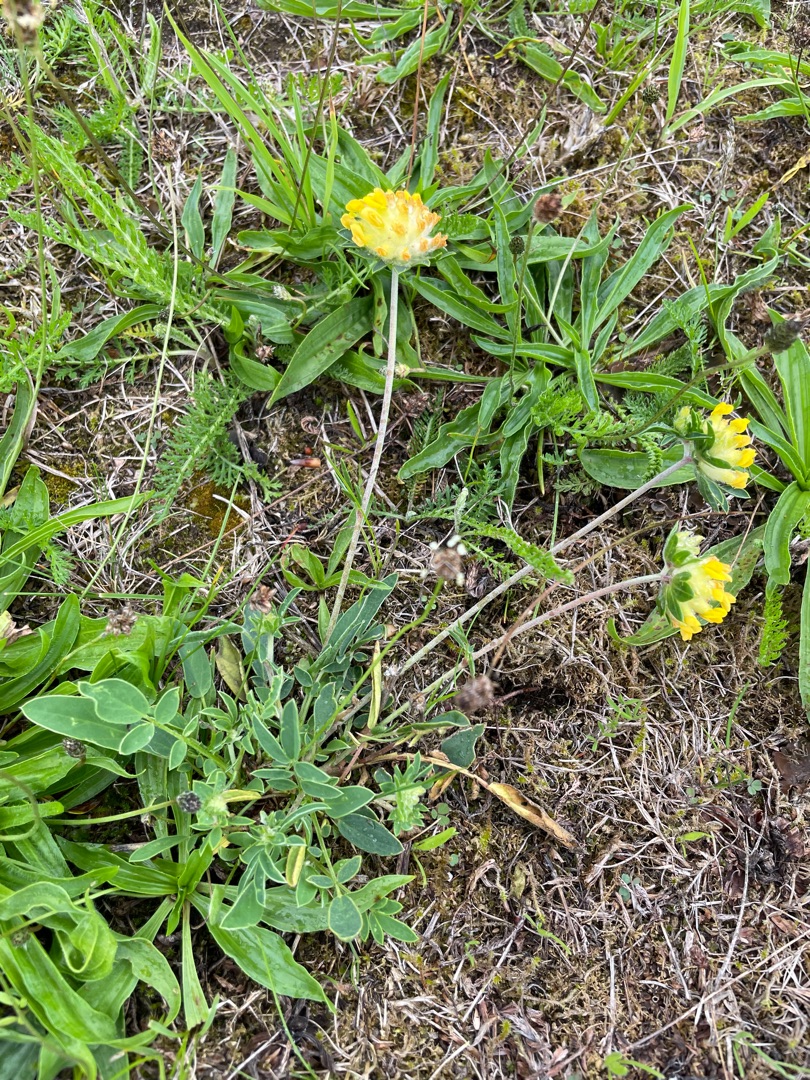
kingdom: Plantae
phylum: Tracheophyta
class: Magnoliopsida
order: Fabales
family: Fabaceae
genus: Anthyllis
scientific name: Anthyllis vulneraria
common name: Rundbælg
